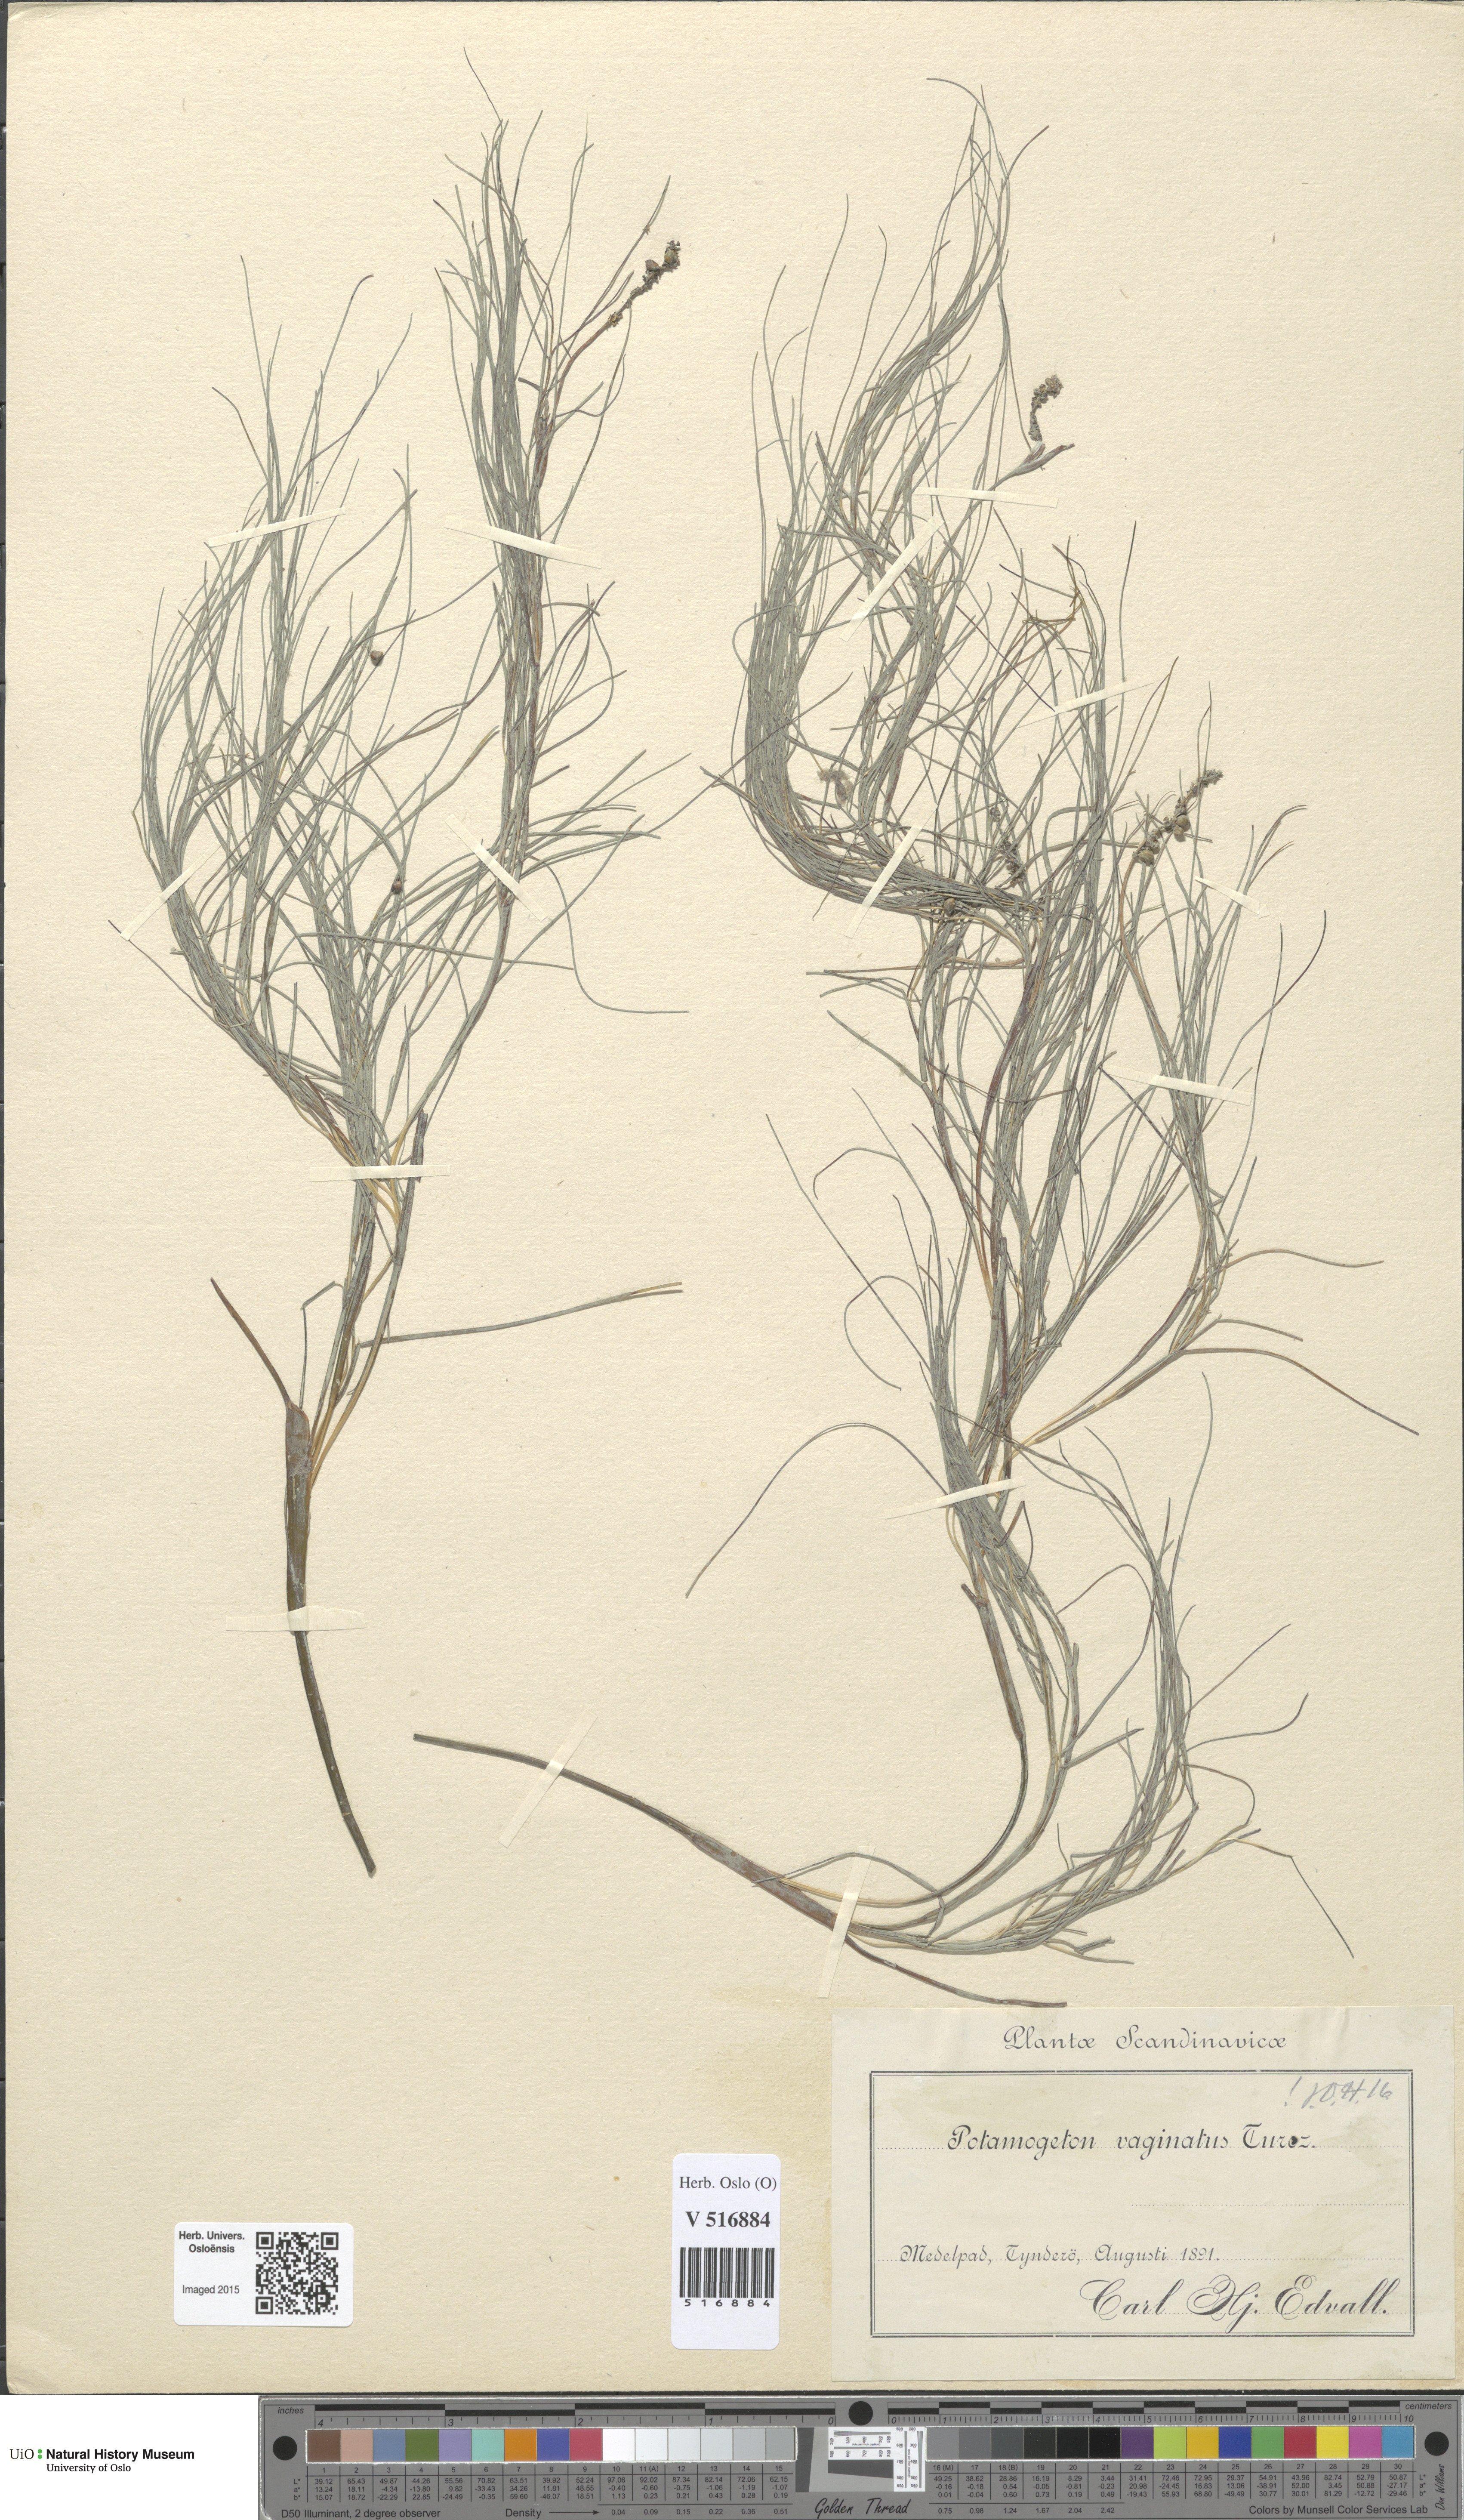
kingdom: Plantae
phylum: Tracheophyta
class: Liliopsida
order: Alismatales
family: Potamogetonaceae
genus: Stuckenia
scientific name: Stuckenia vaginata
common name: Big-sheathed pondweed
